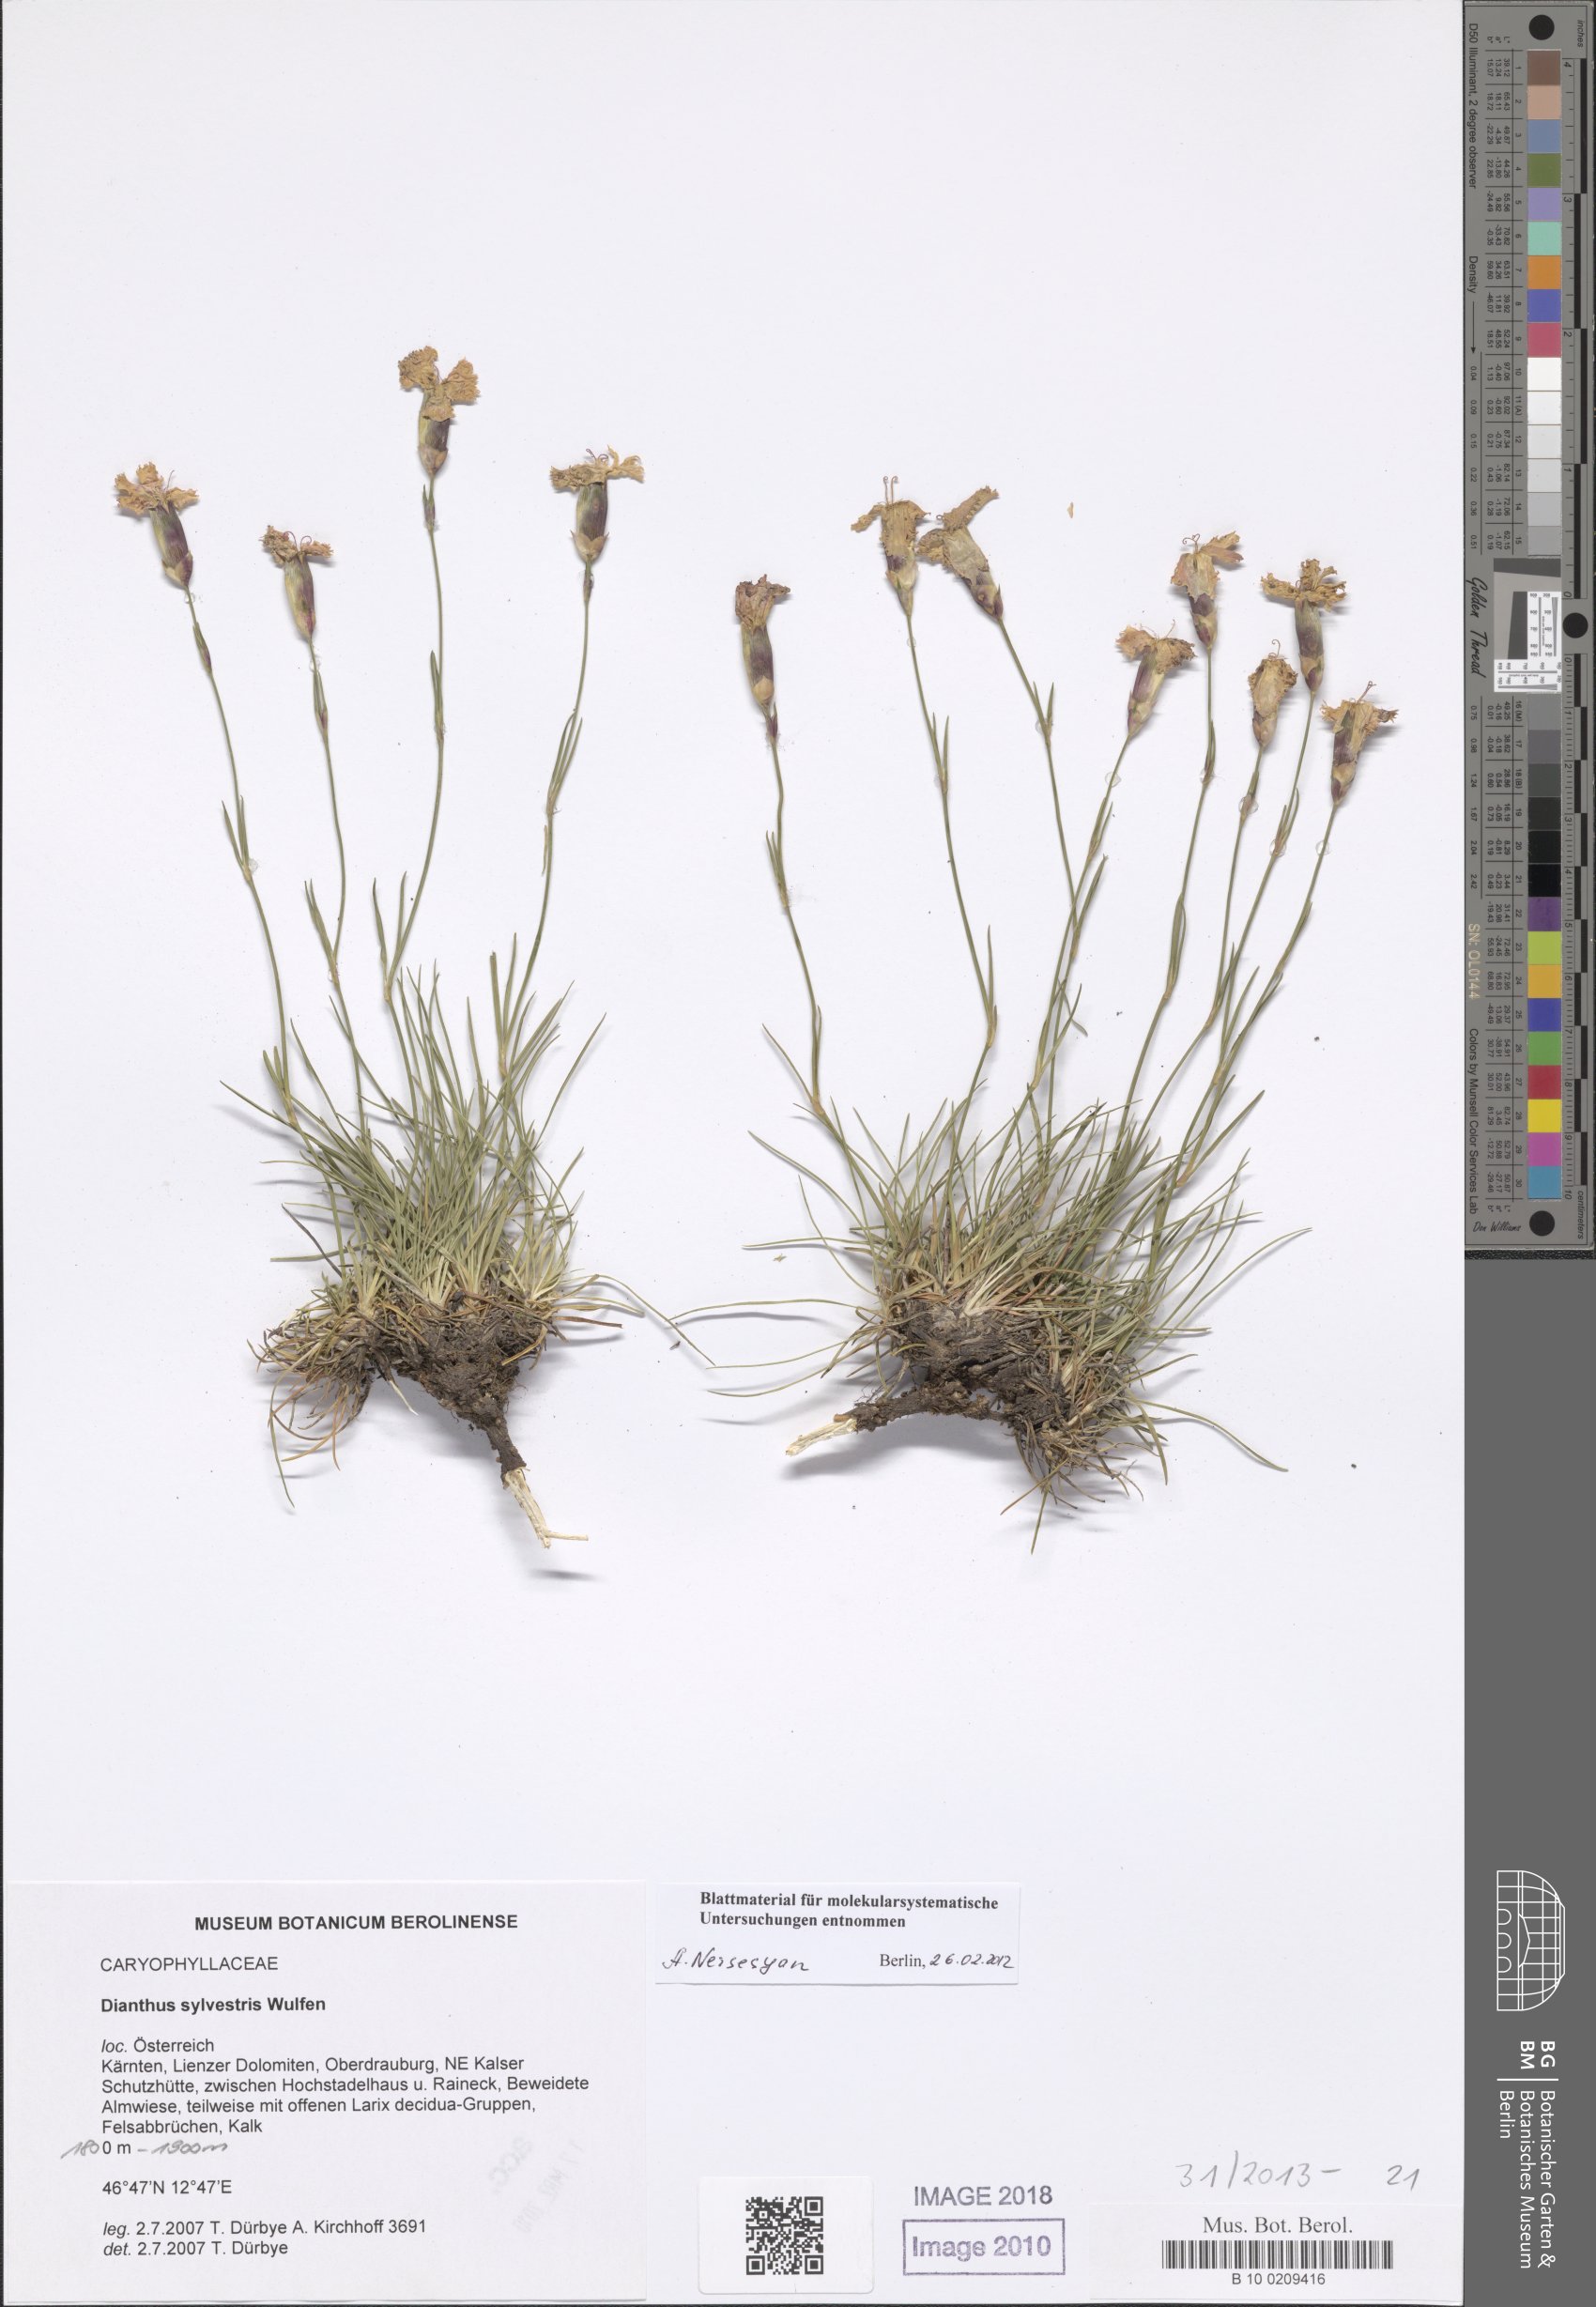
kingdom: Plantae
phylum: Tracheophyta
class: Magnoliopsida
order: Caryophyllales
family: Caryophyllaceae
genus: Dianthus
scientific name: Dianthus sylvestris
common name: Wood pink
